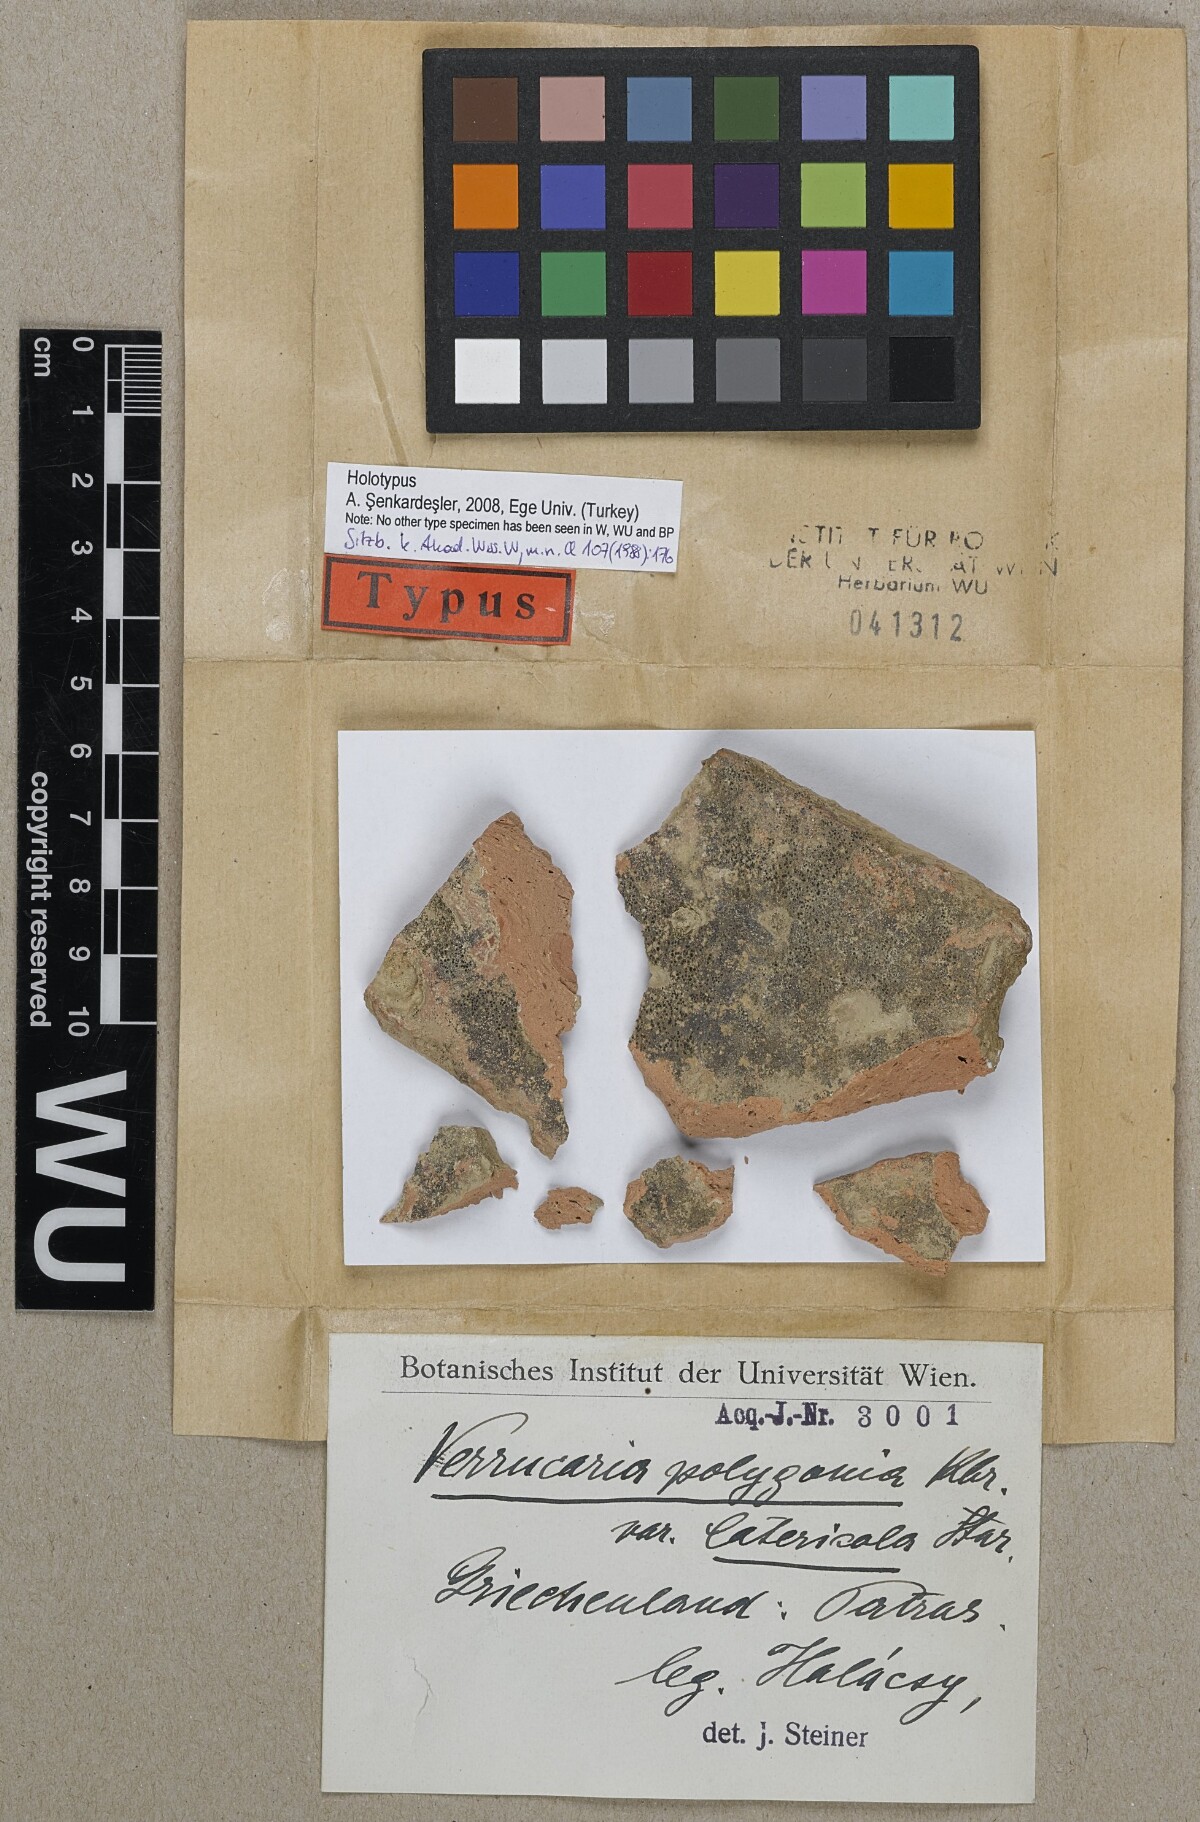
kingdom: Fungi
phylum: Ascomycota
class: Eurotiomycetes
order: Verrucariales
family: Verrucariaceae
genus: Verrucaria
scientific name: Verrucaria polygonia
